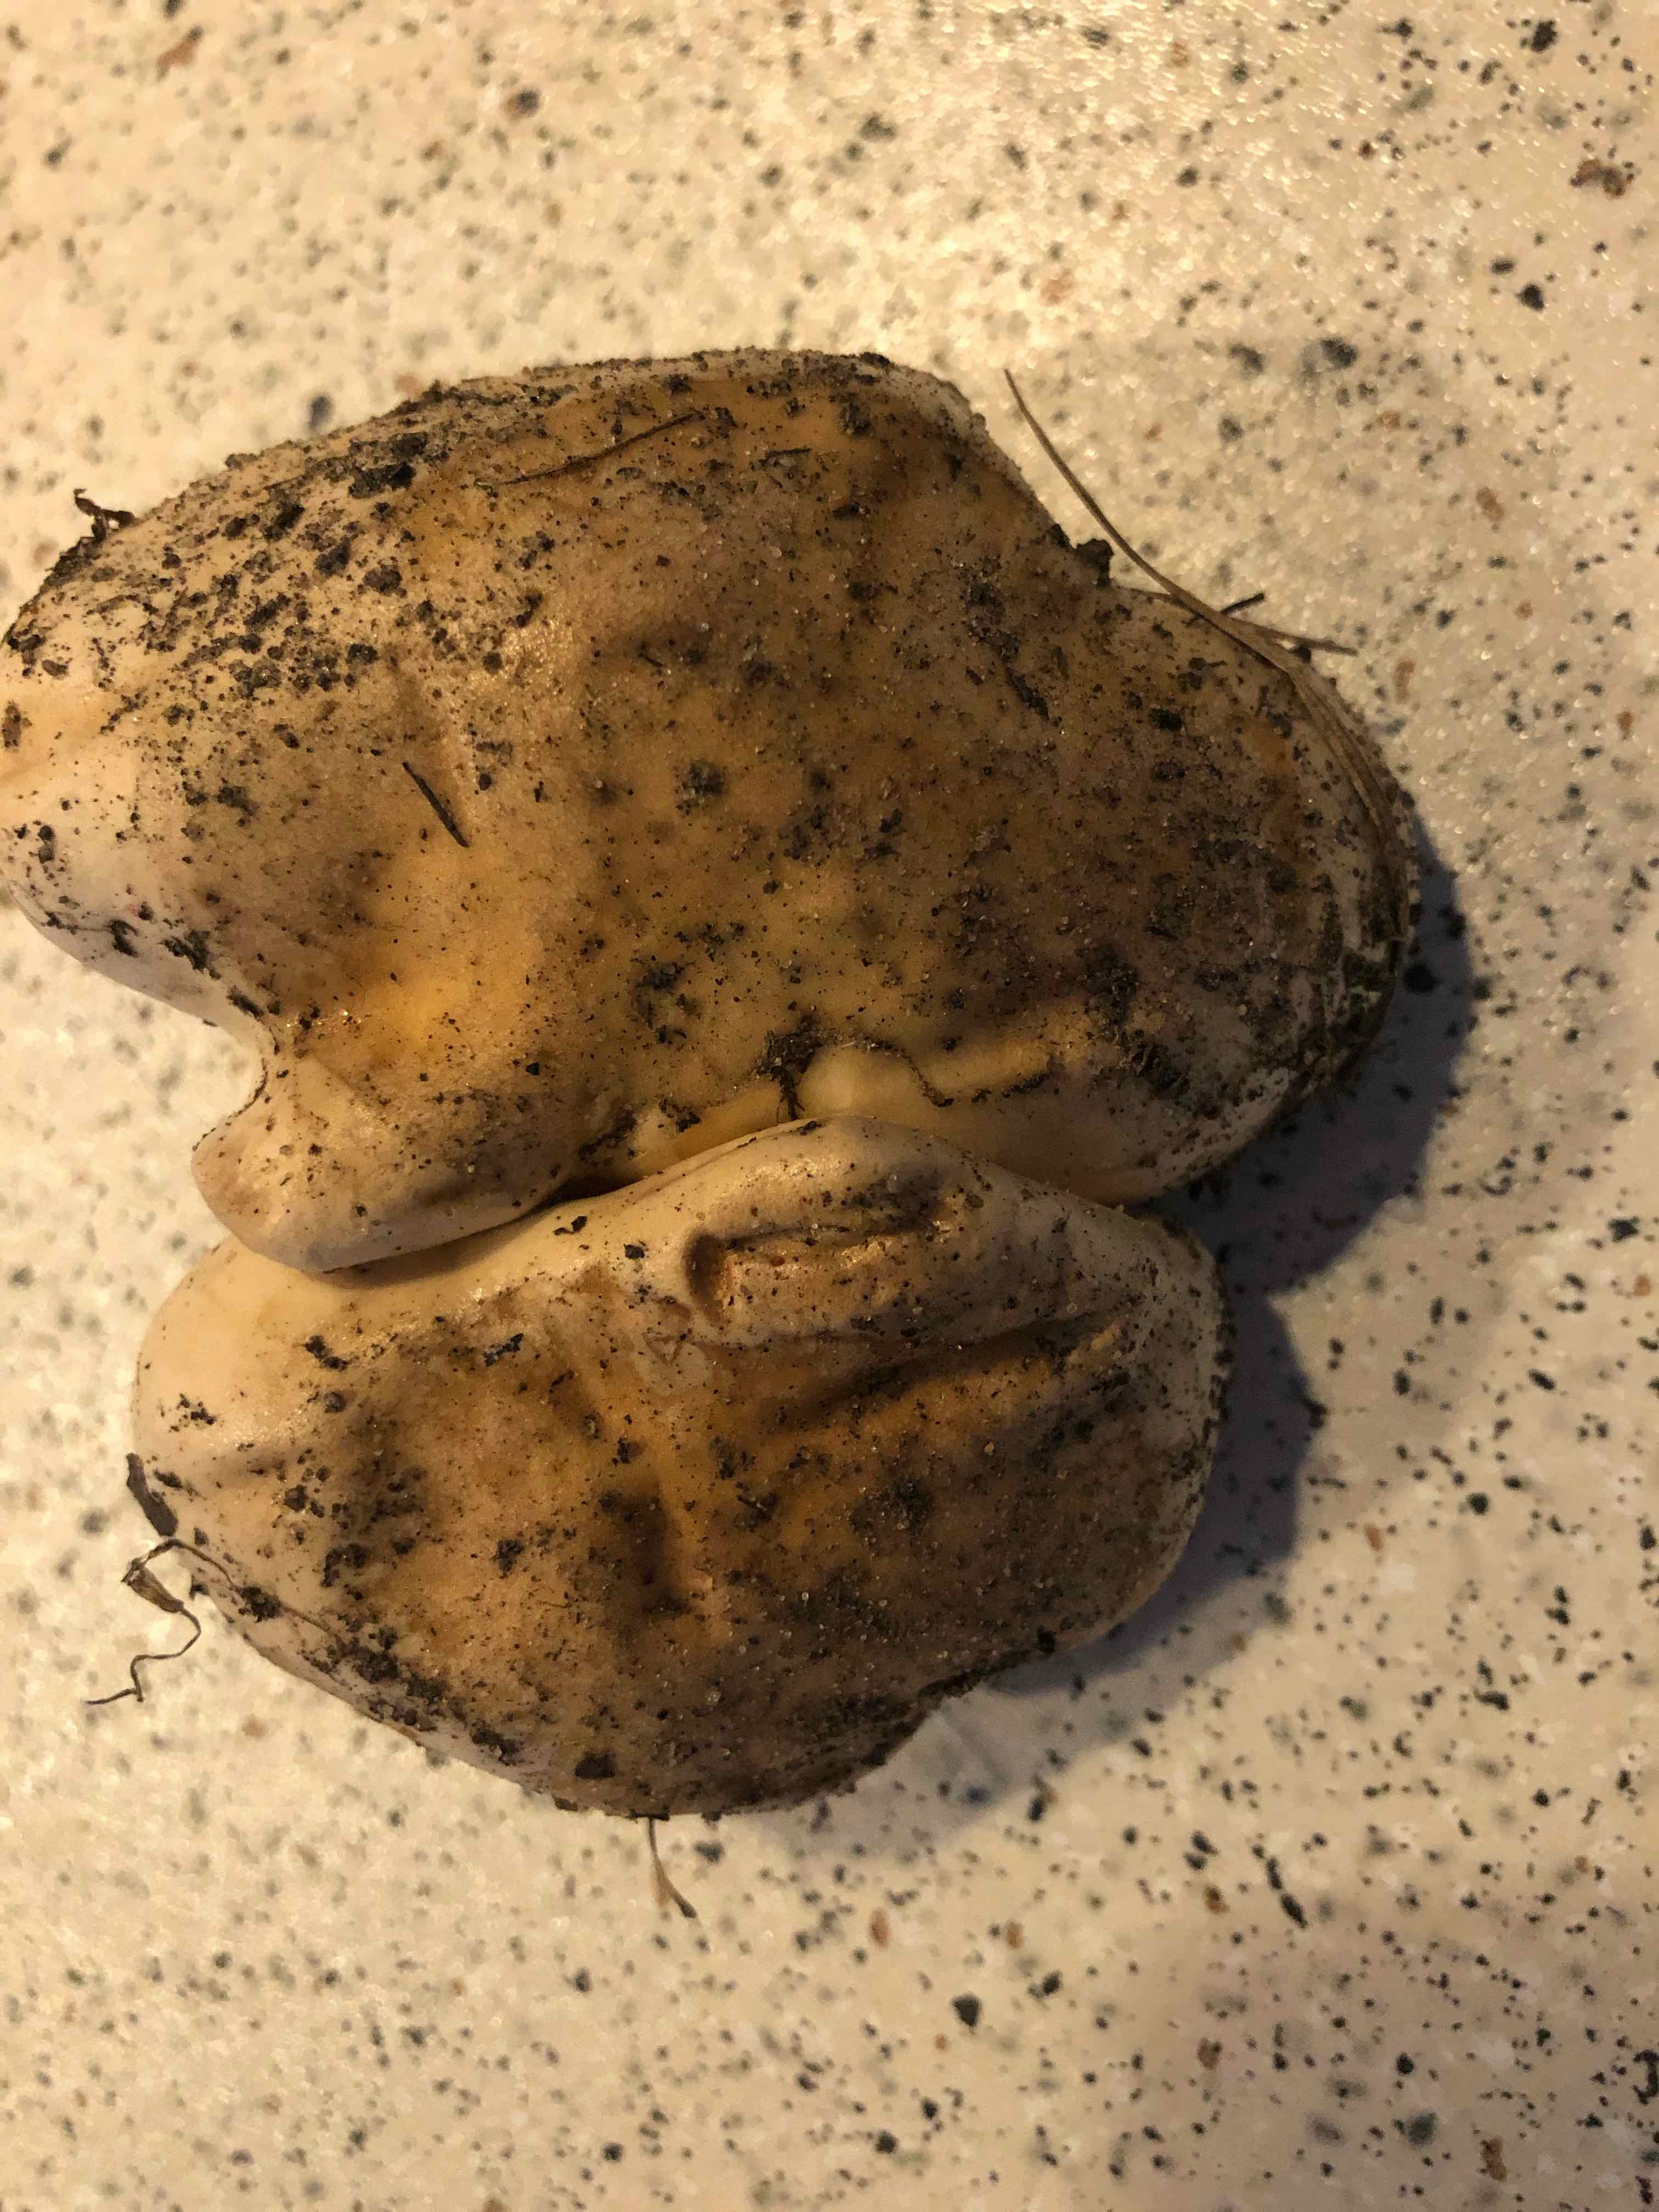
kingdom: Fungi
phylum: Basidiomycota
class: Agaricomycetes
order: Agaricales
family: Hymenogastraceae
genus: Hebeloma
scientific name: Hebeloma
